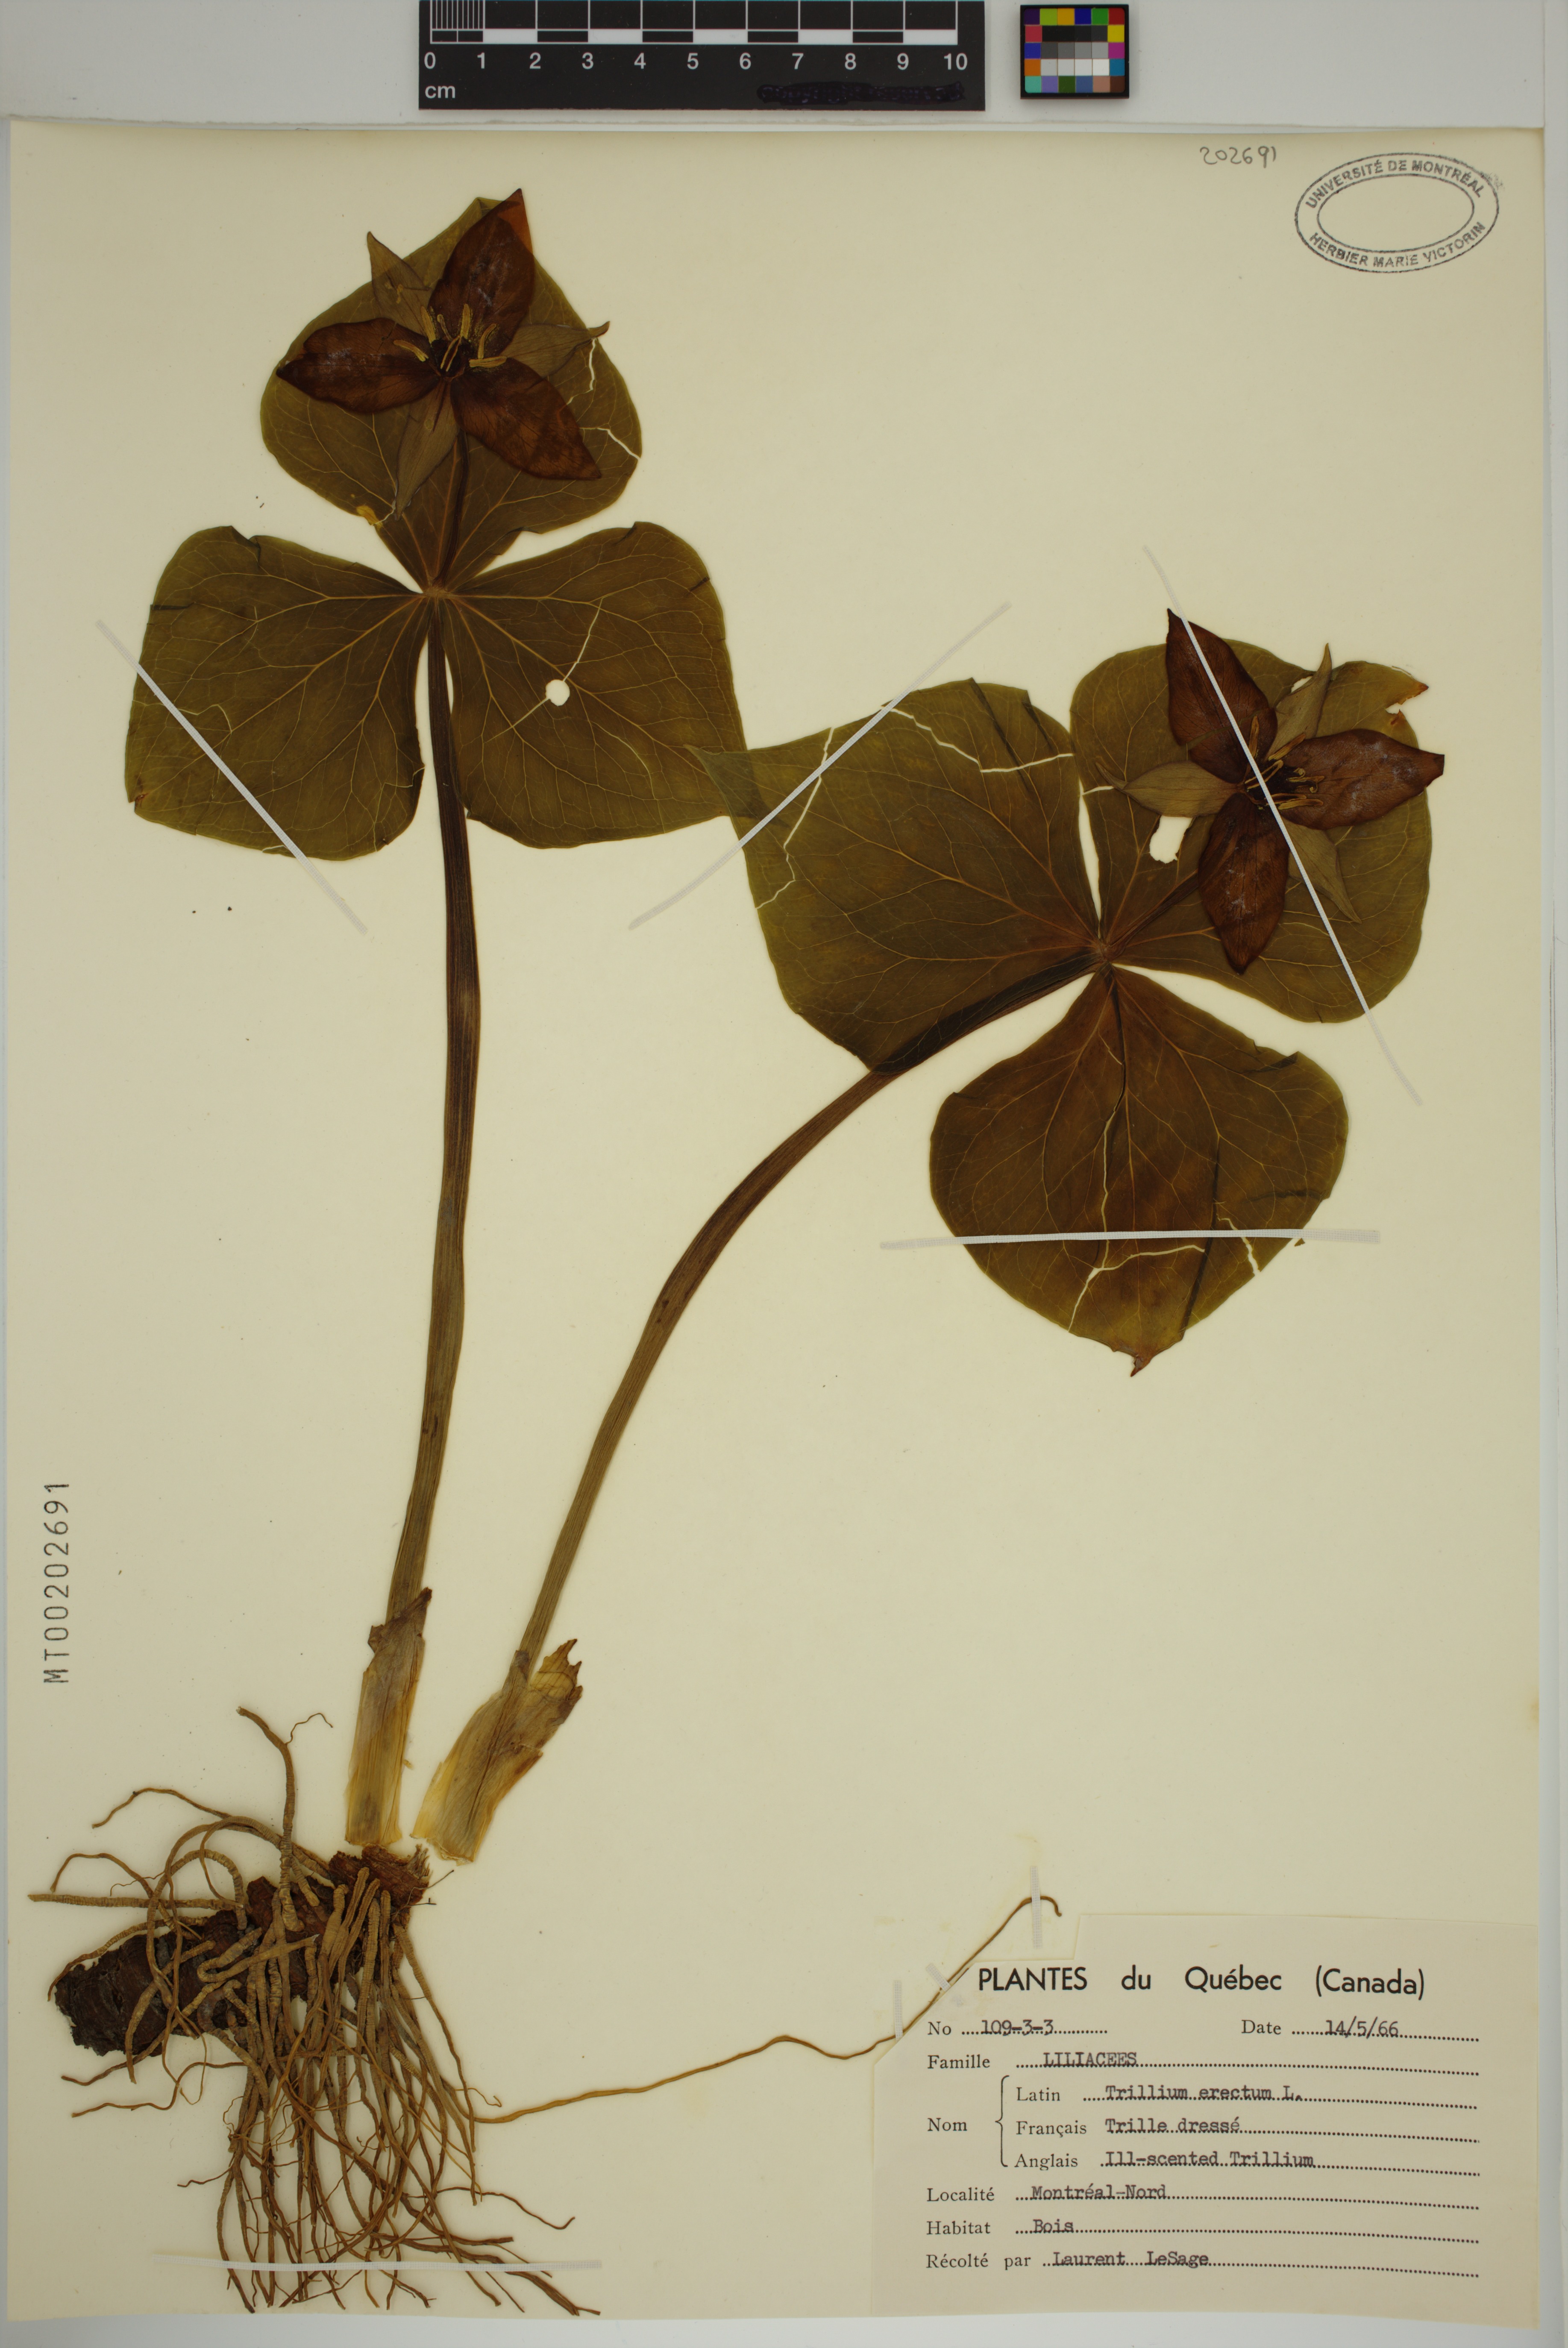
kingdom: Plantae
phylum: Tracheophyta
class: Liliopsida
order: Liliales
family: Melanthiaceae
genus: Trillium
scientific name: Trillium erectum
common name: Purple trillium
